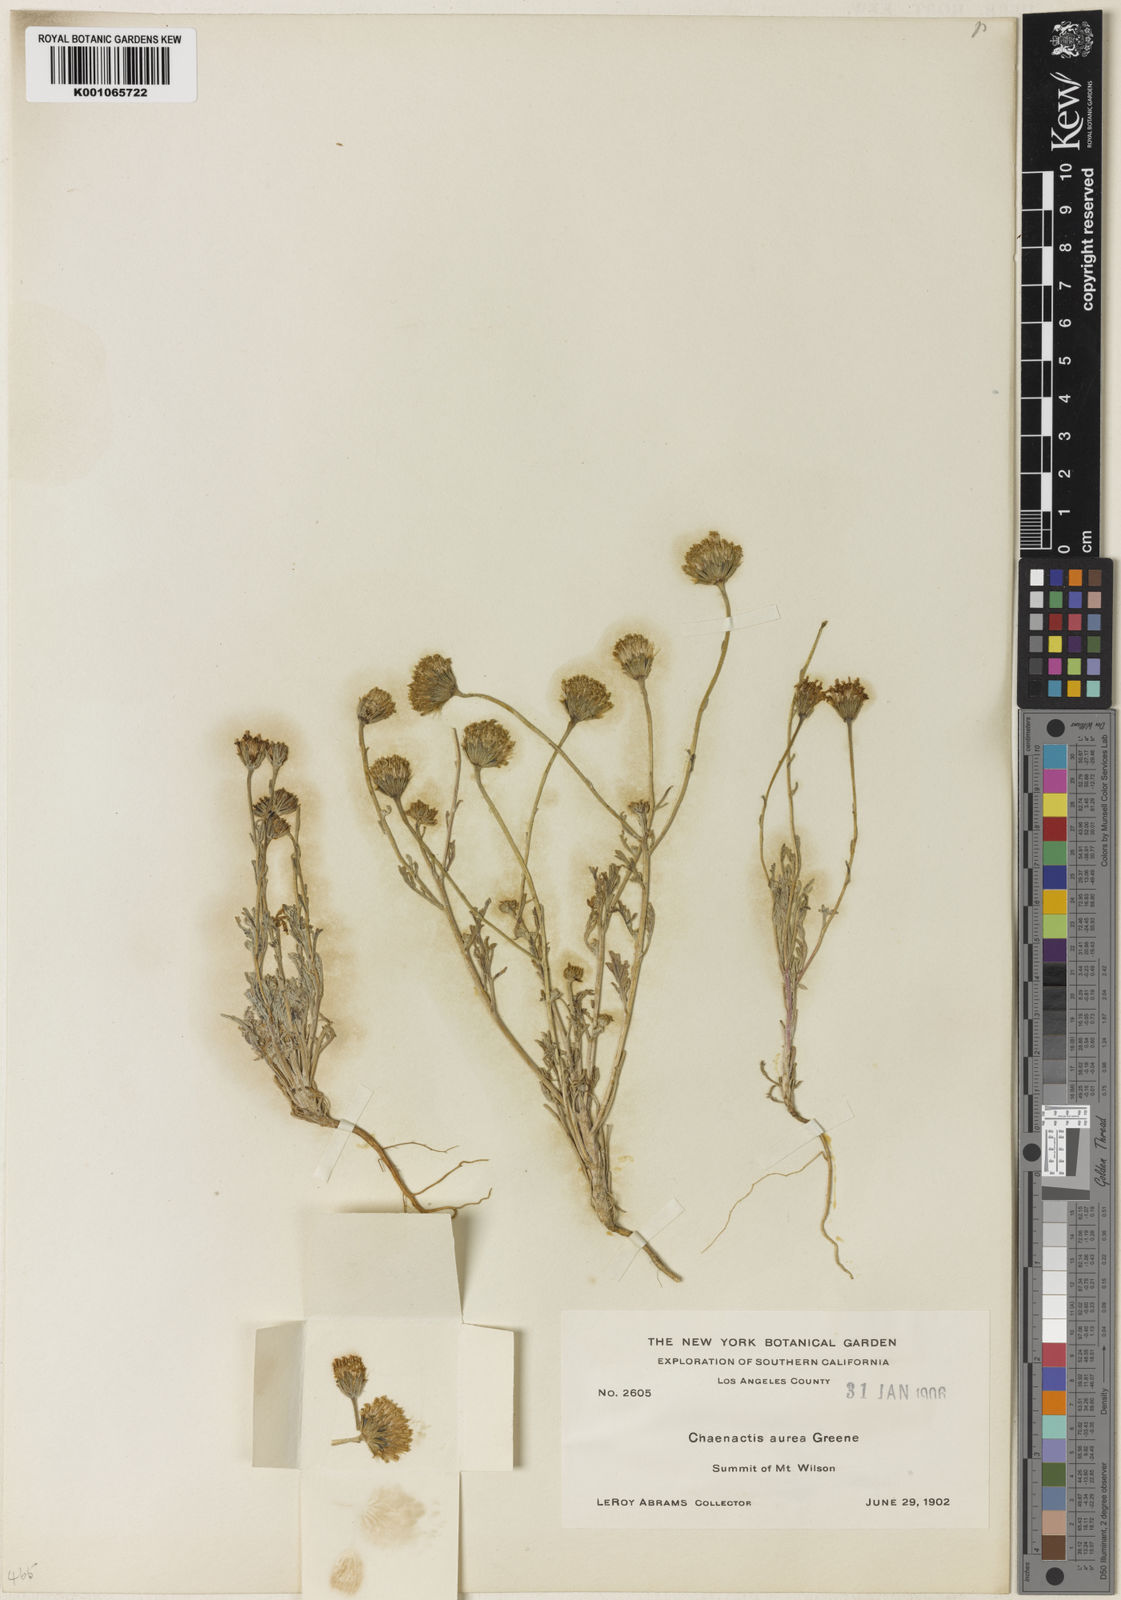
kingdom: Plantae
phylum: Tracheophyta
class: Magnoliopsida
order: Asterales
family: Asteraceae
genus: Chaenactis
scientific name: Chaenactis glabriuscula
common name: Yellow pincushion
